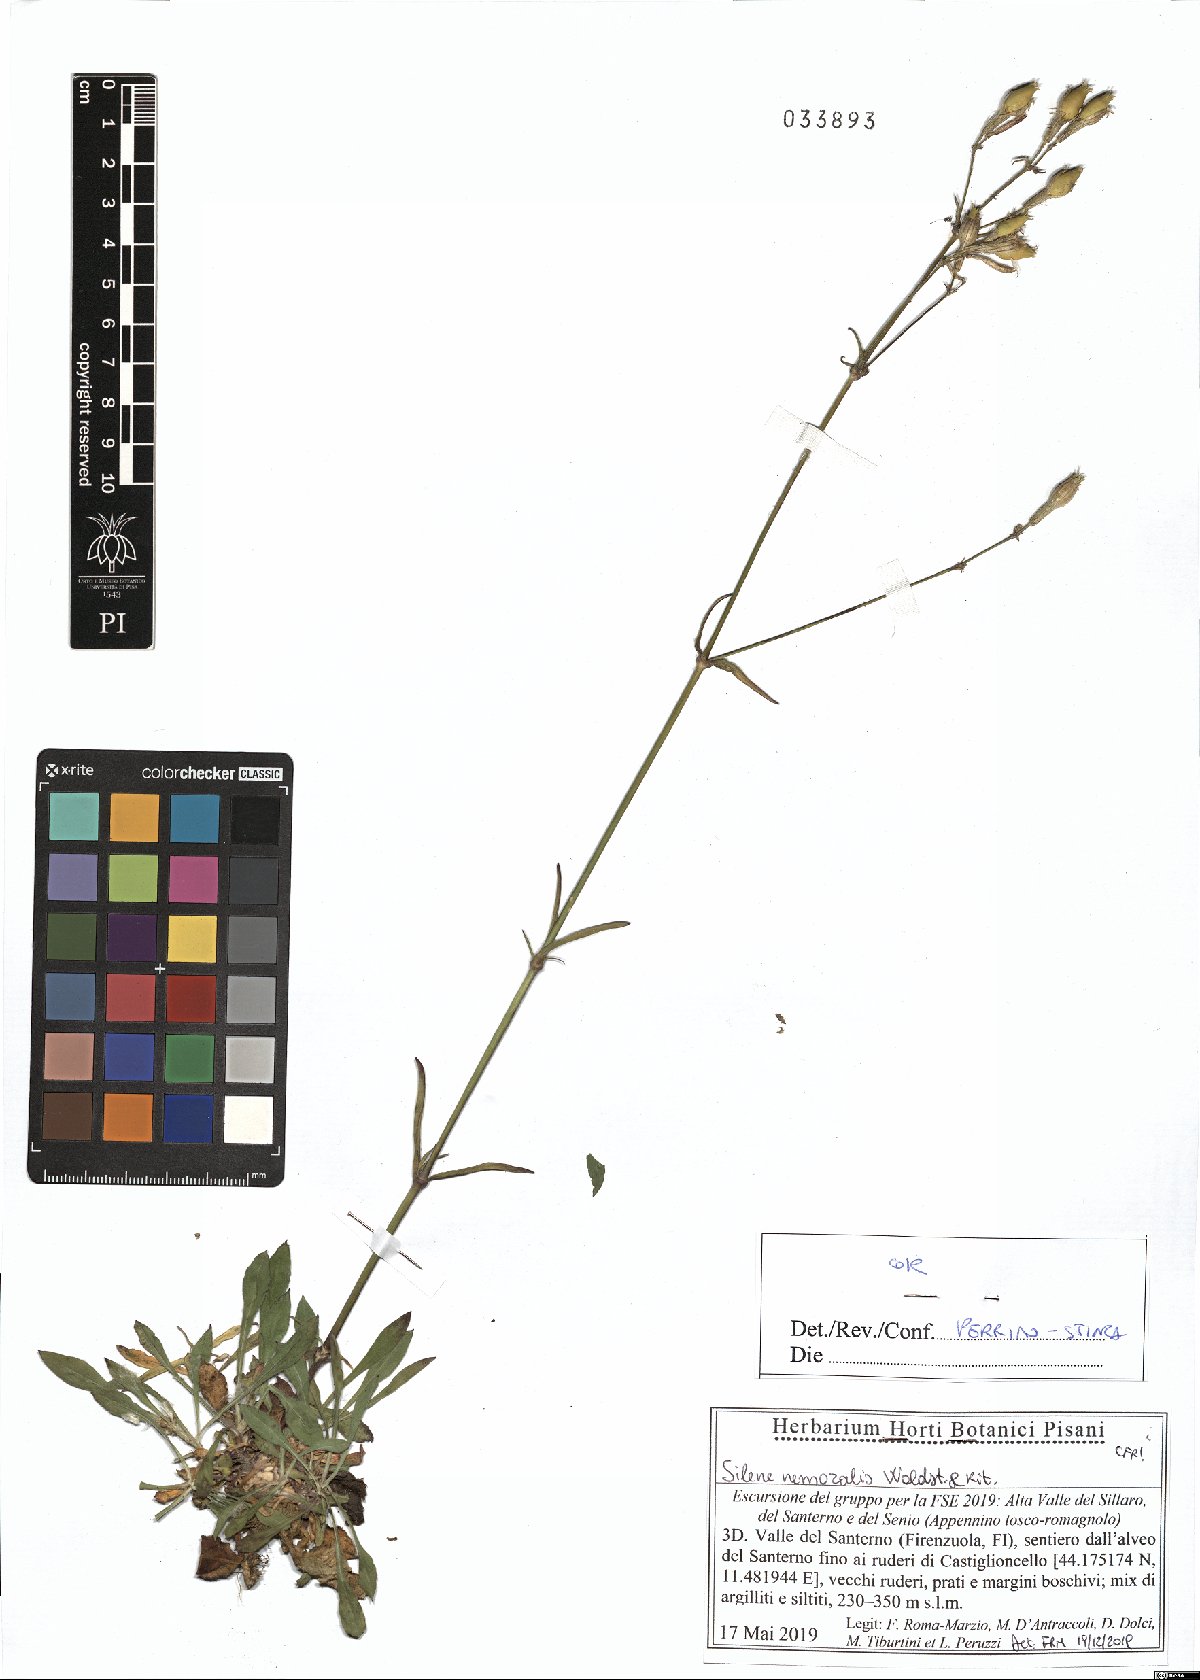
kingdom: Plantae
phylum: Tracheophyta
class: Magnoliopsida
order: Caryophyllales
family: Caryophyllaceae
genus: Silene
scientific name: Silene nemoralis
